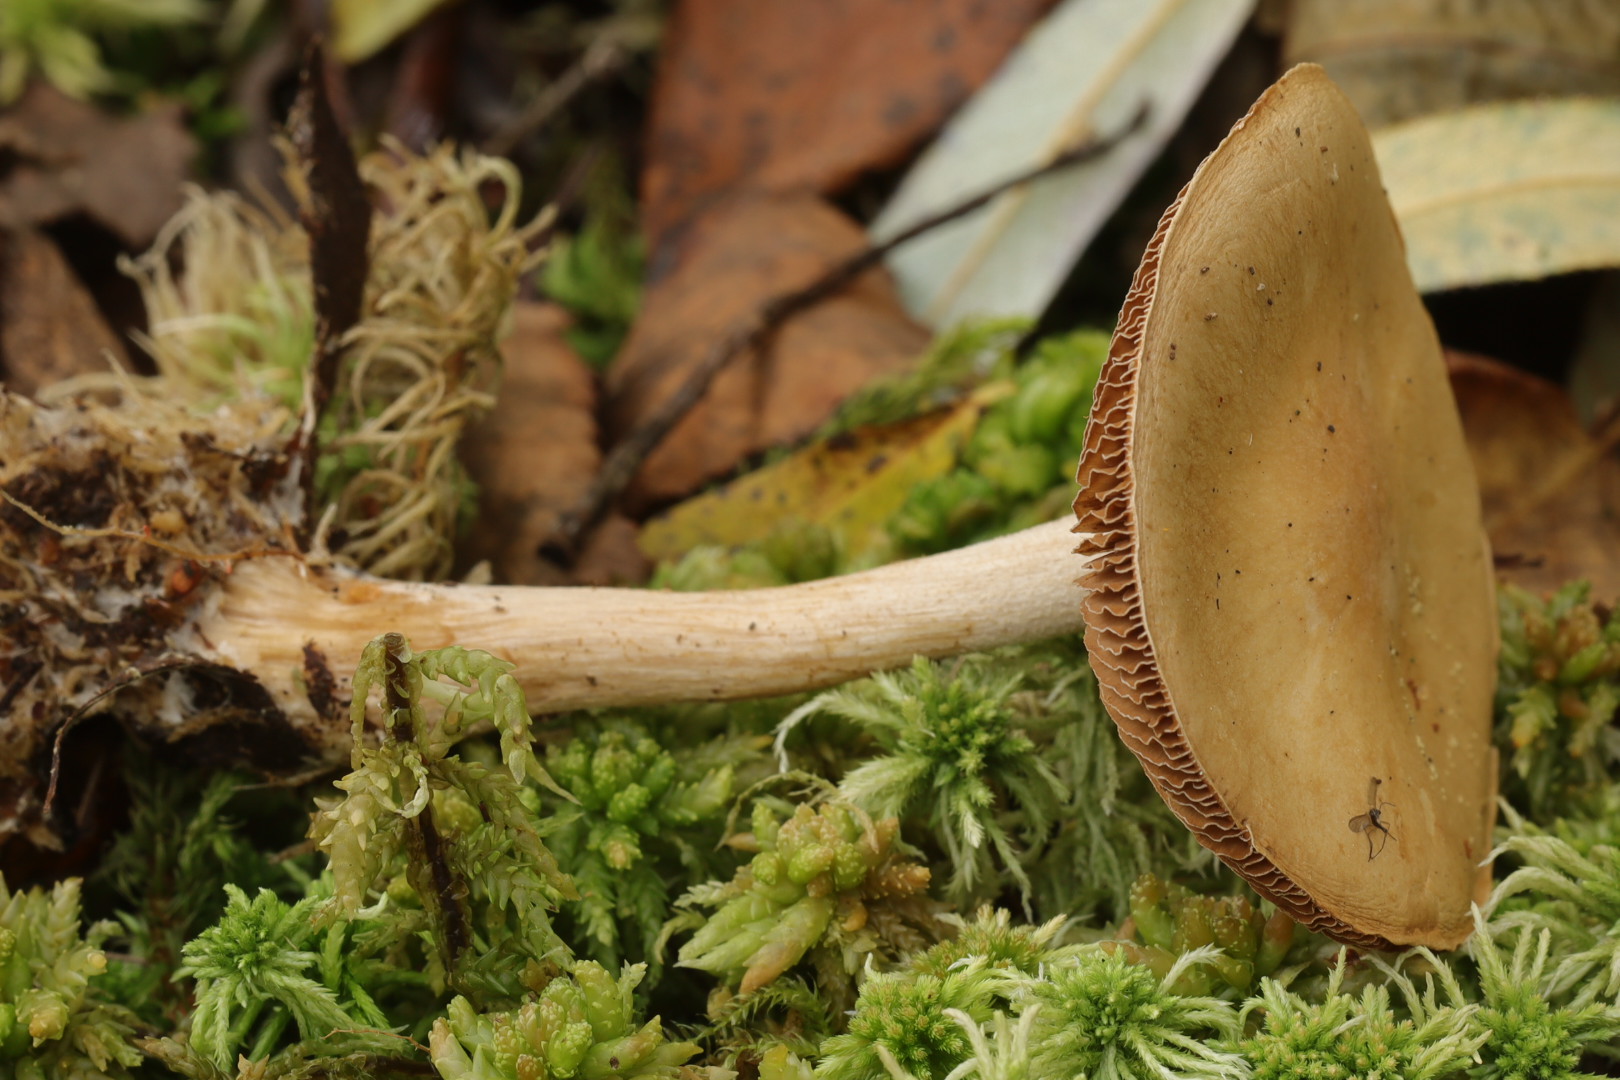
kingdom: Fungi
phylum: Basidiomycota
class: Agaricomycetes
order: Agaricales
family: Hymenogastraceae
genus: Hebeloma
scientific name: Hebeloma
